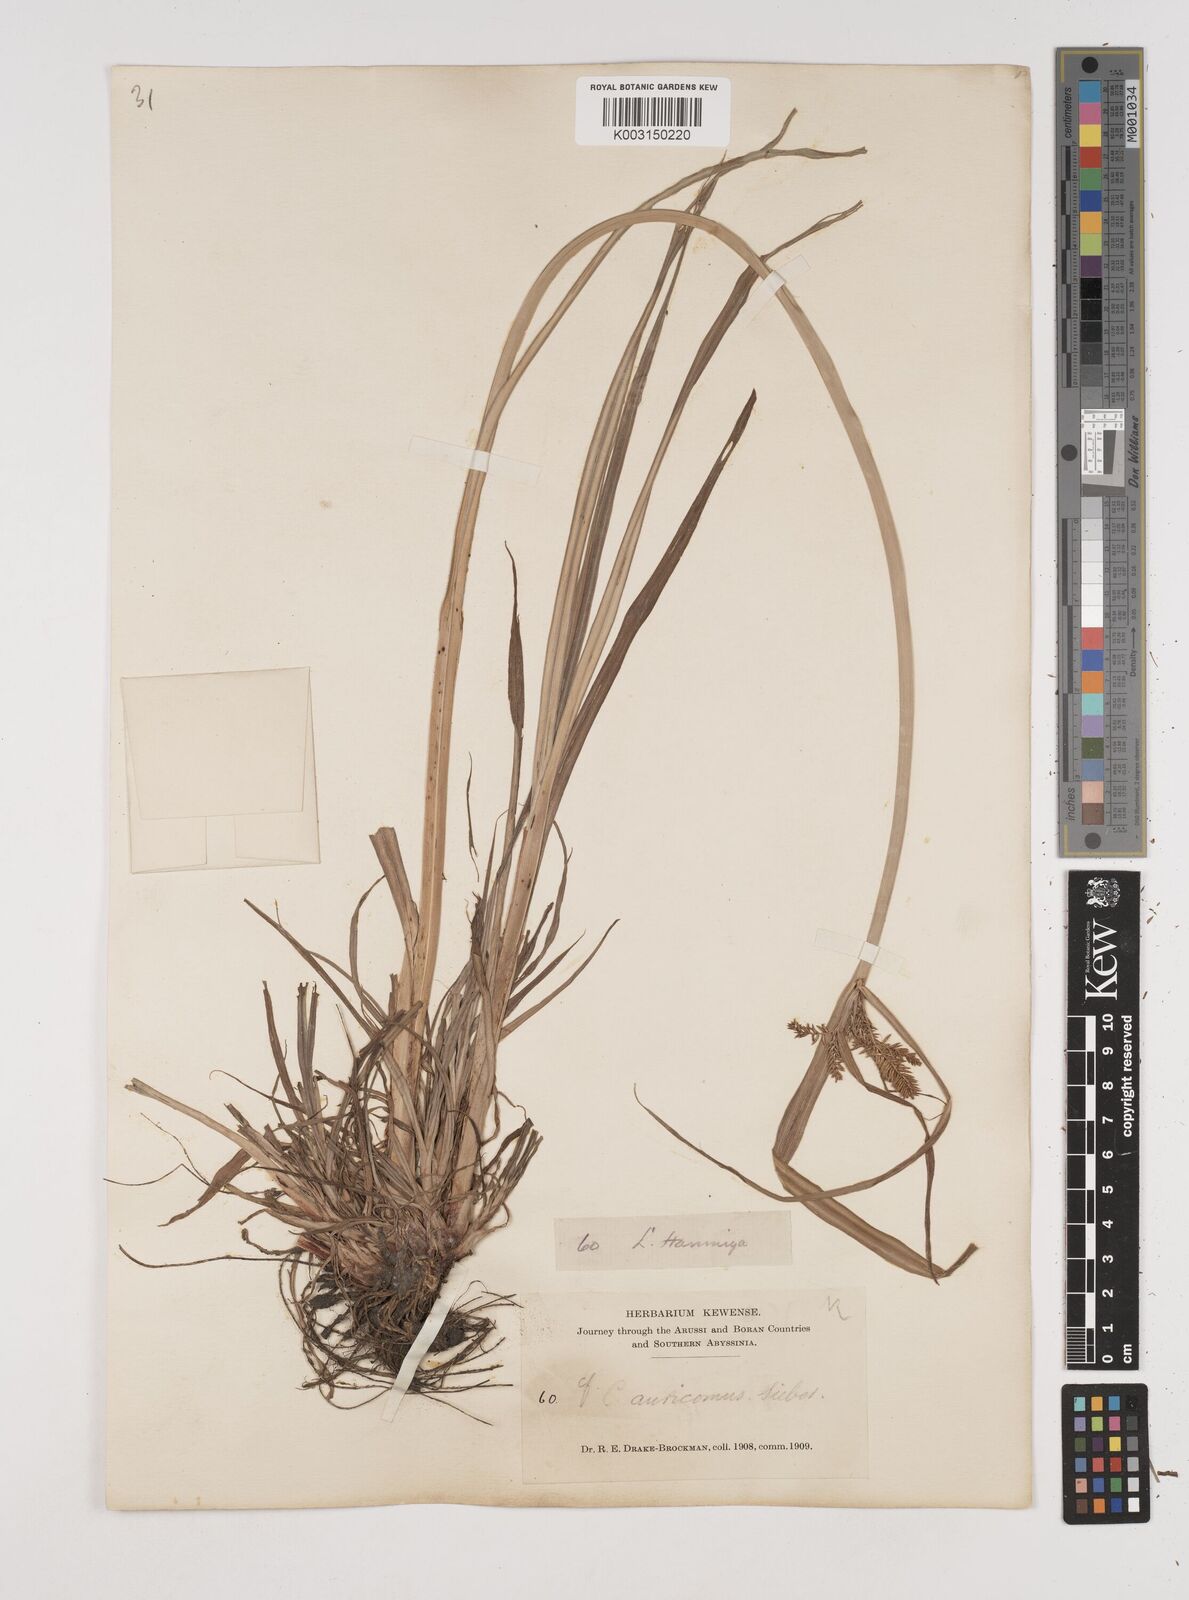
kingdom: Plantae
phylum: Tracheophyta
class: Liliopsida
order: Poales
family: Cyperaceae
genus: Cyperus
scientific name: Cyperus digitatus
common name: Finger flatsedge
